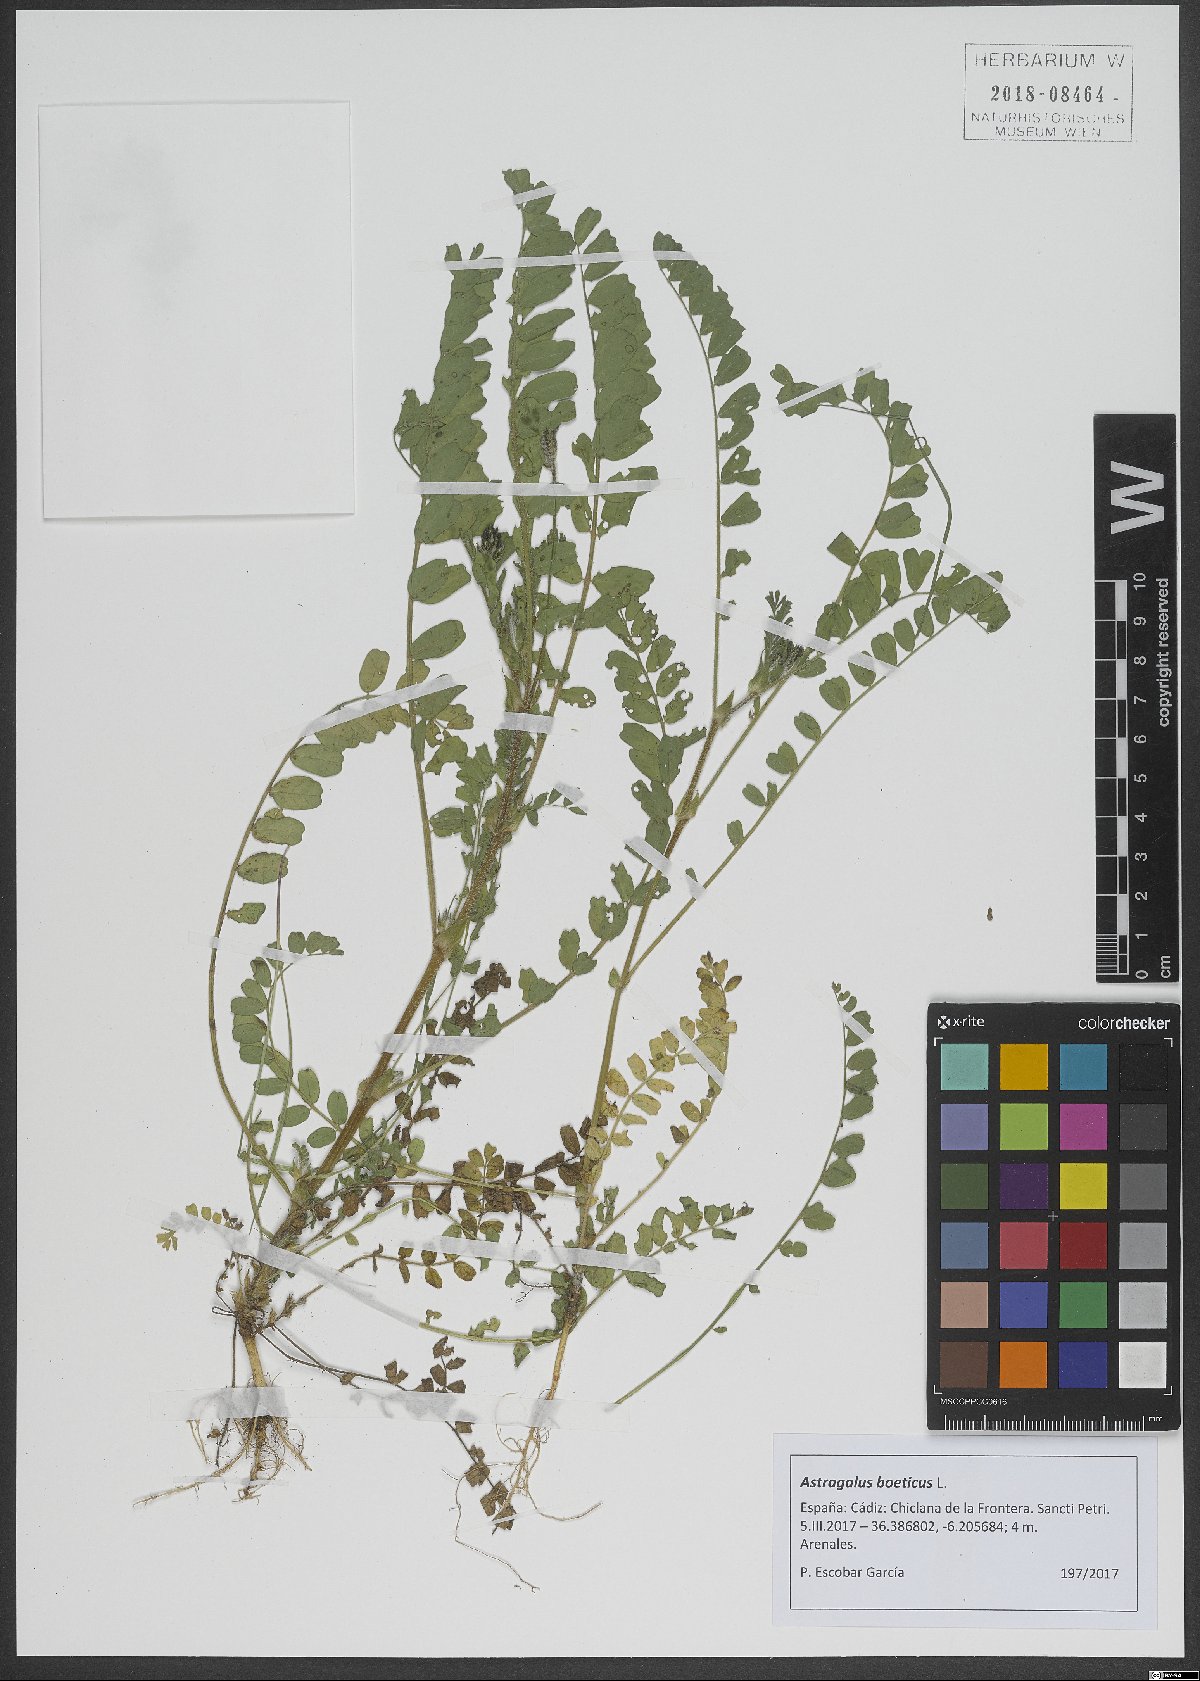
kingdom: Plantae
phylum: Tracheophyta
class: Magnoliopsida
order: Fabales
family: Fabaceae
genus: Astragalus
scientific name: Astragalus boeticus
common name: Milk-vetch
